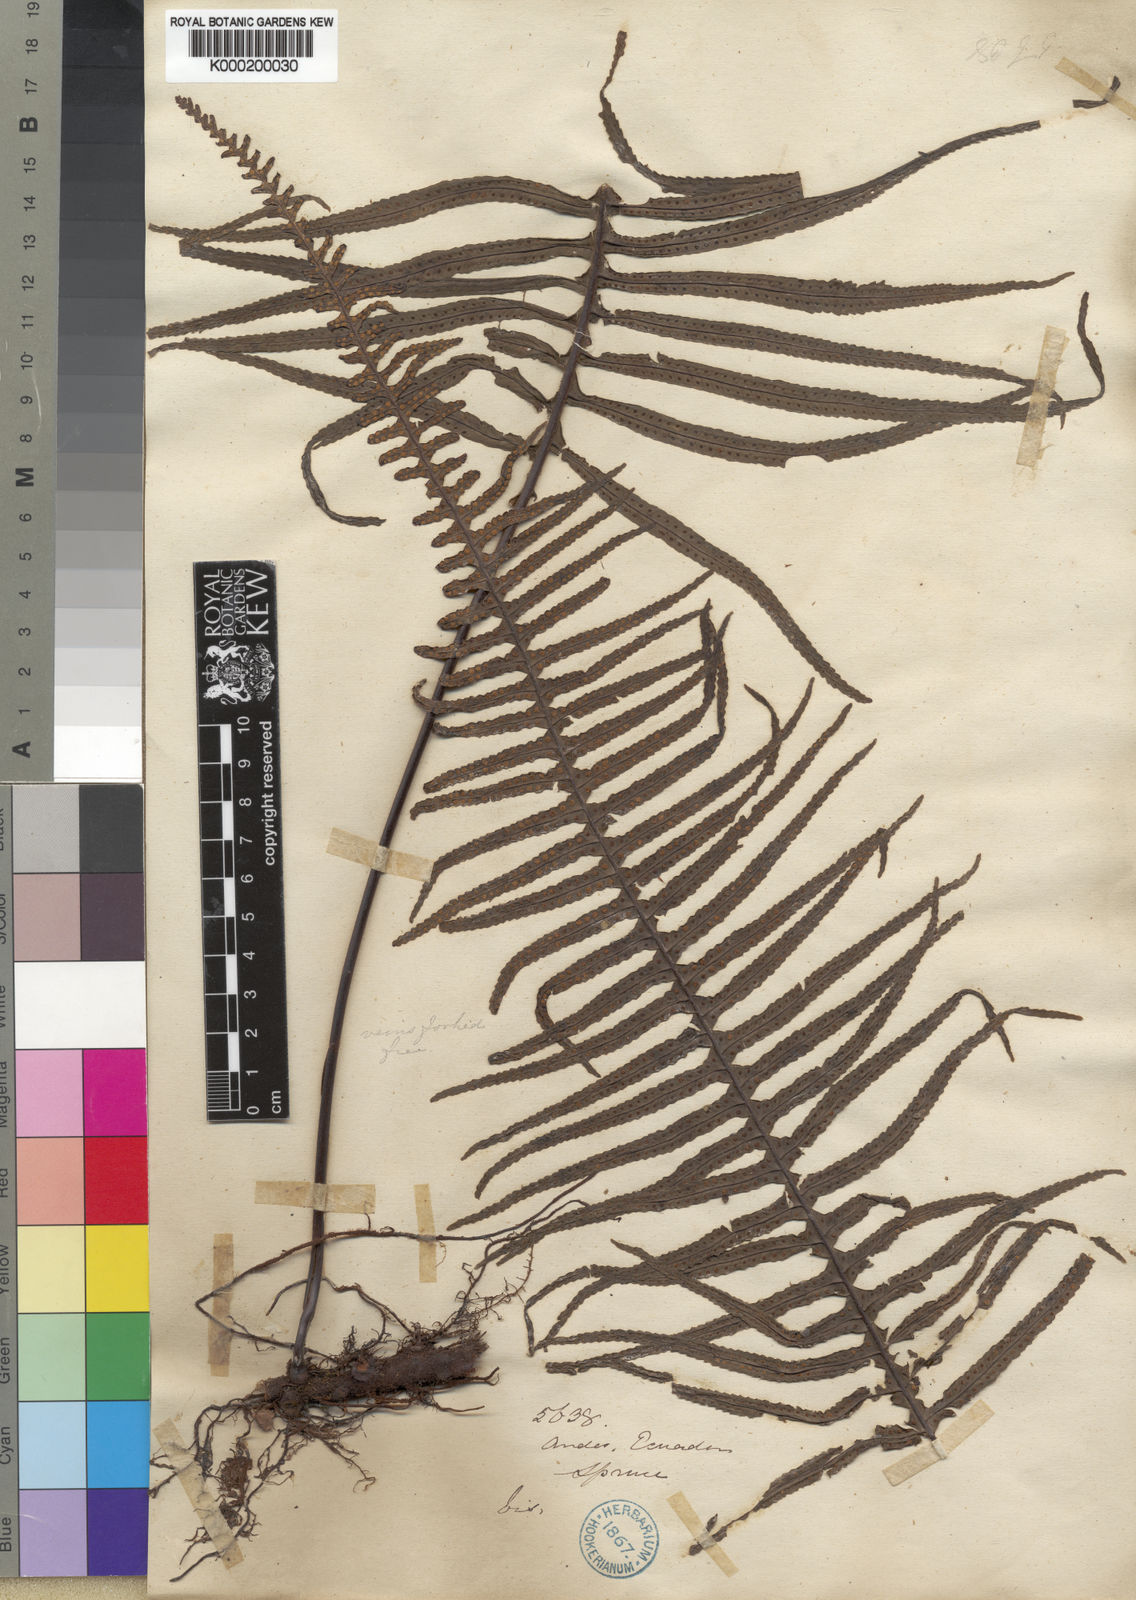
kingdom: Plantae
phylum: Tracheophyta
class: Polypodiopsida
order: Polypodiales
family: Polypodiaceae
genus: Pecluma
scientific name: Pecluma divaricata
